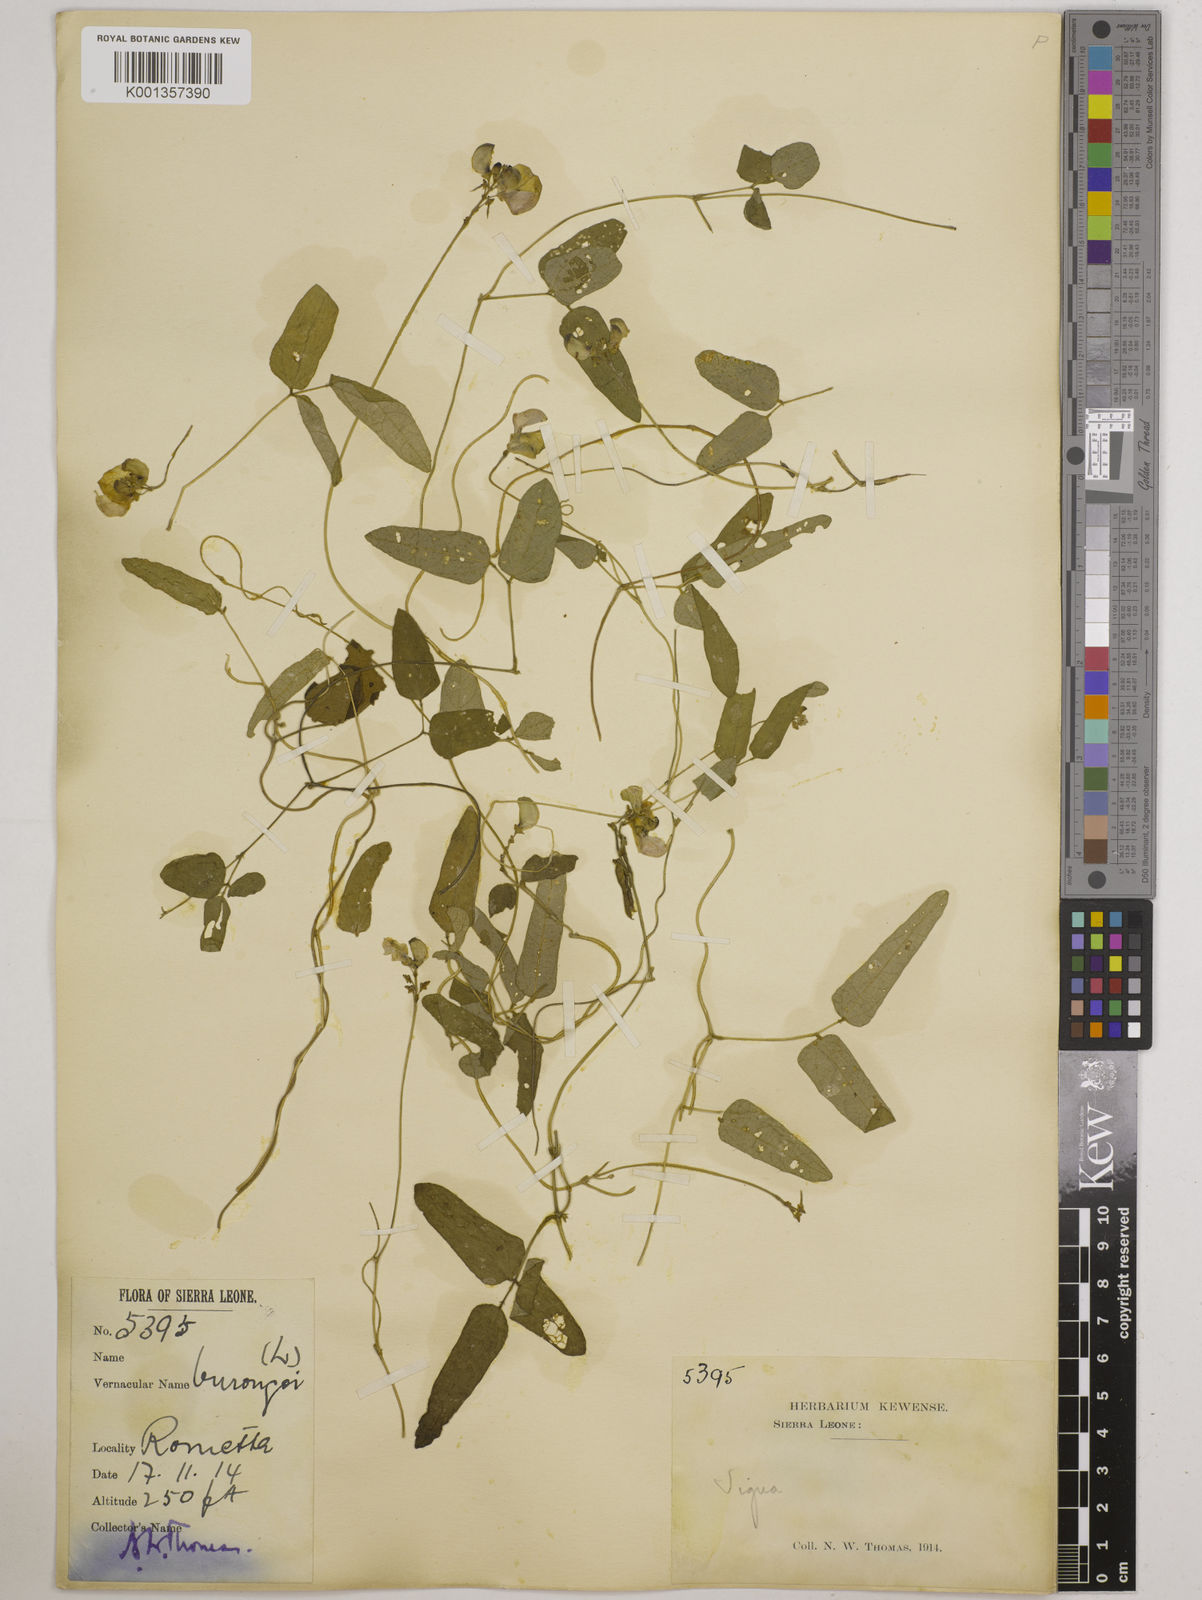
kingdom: Plantae
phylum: Tracheophyta
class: Magnoliopsida
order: Fabales
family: Fabaceae
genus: Vigna
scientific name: Vigna gracilis
